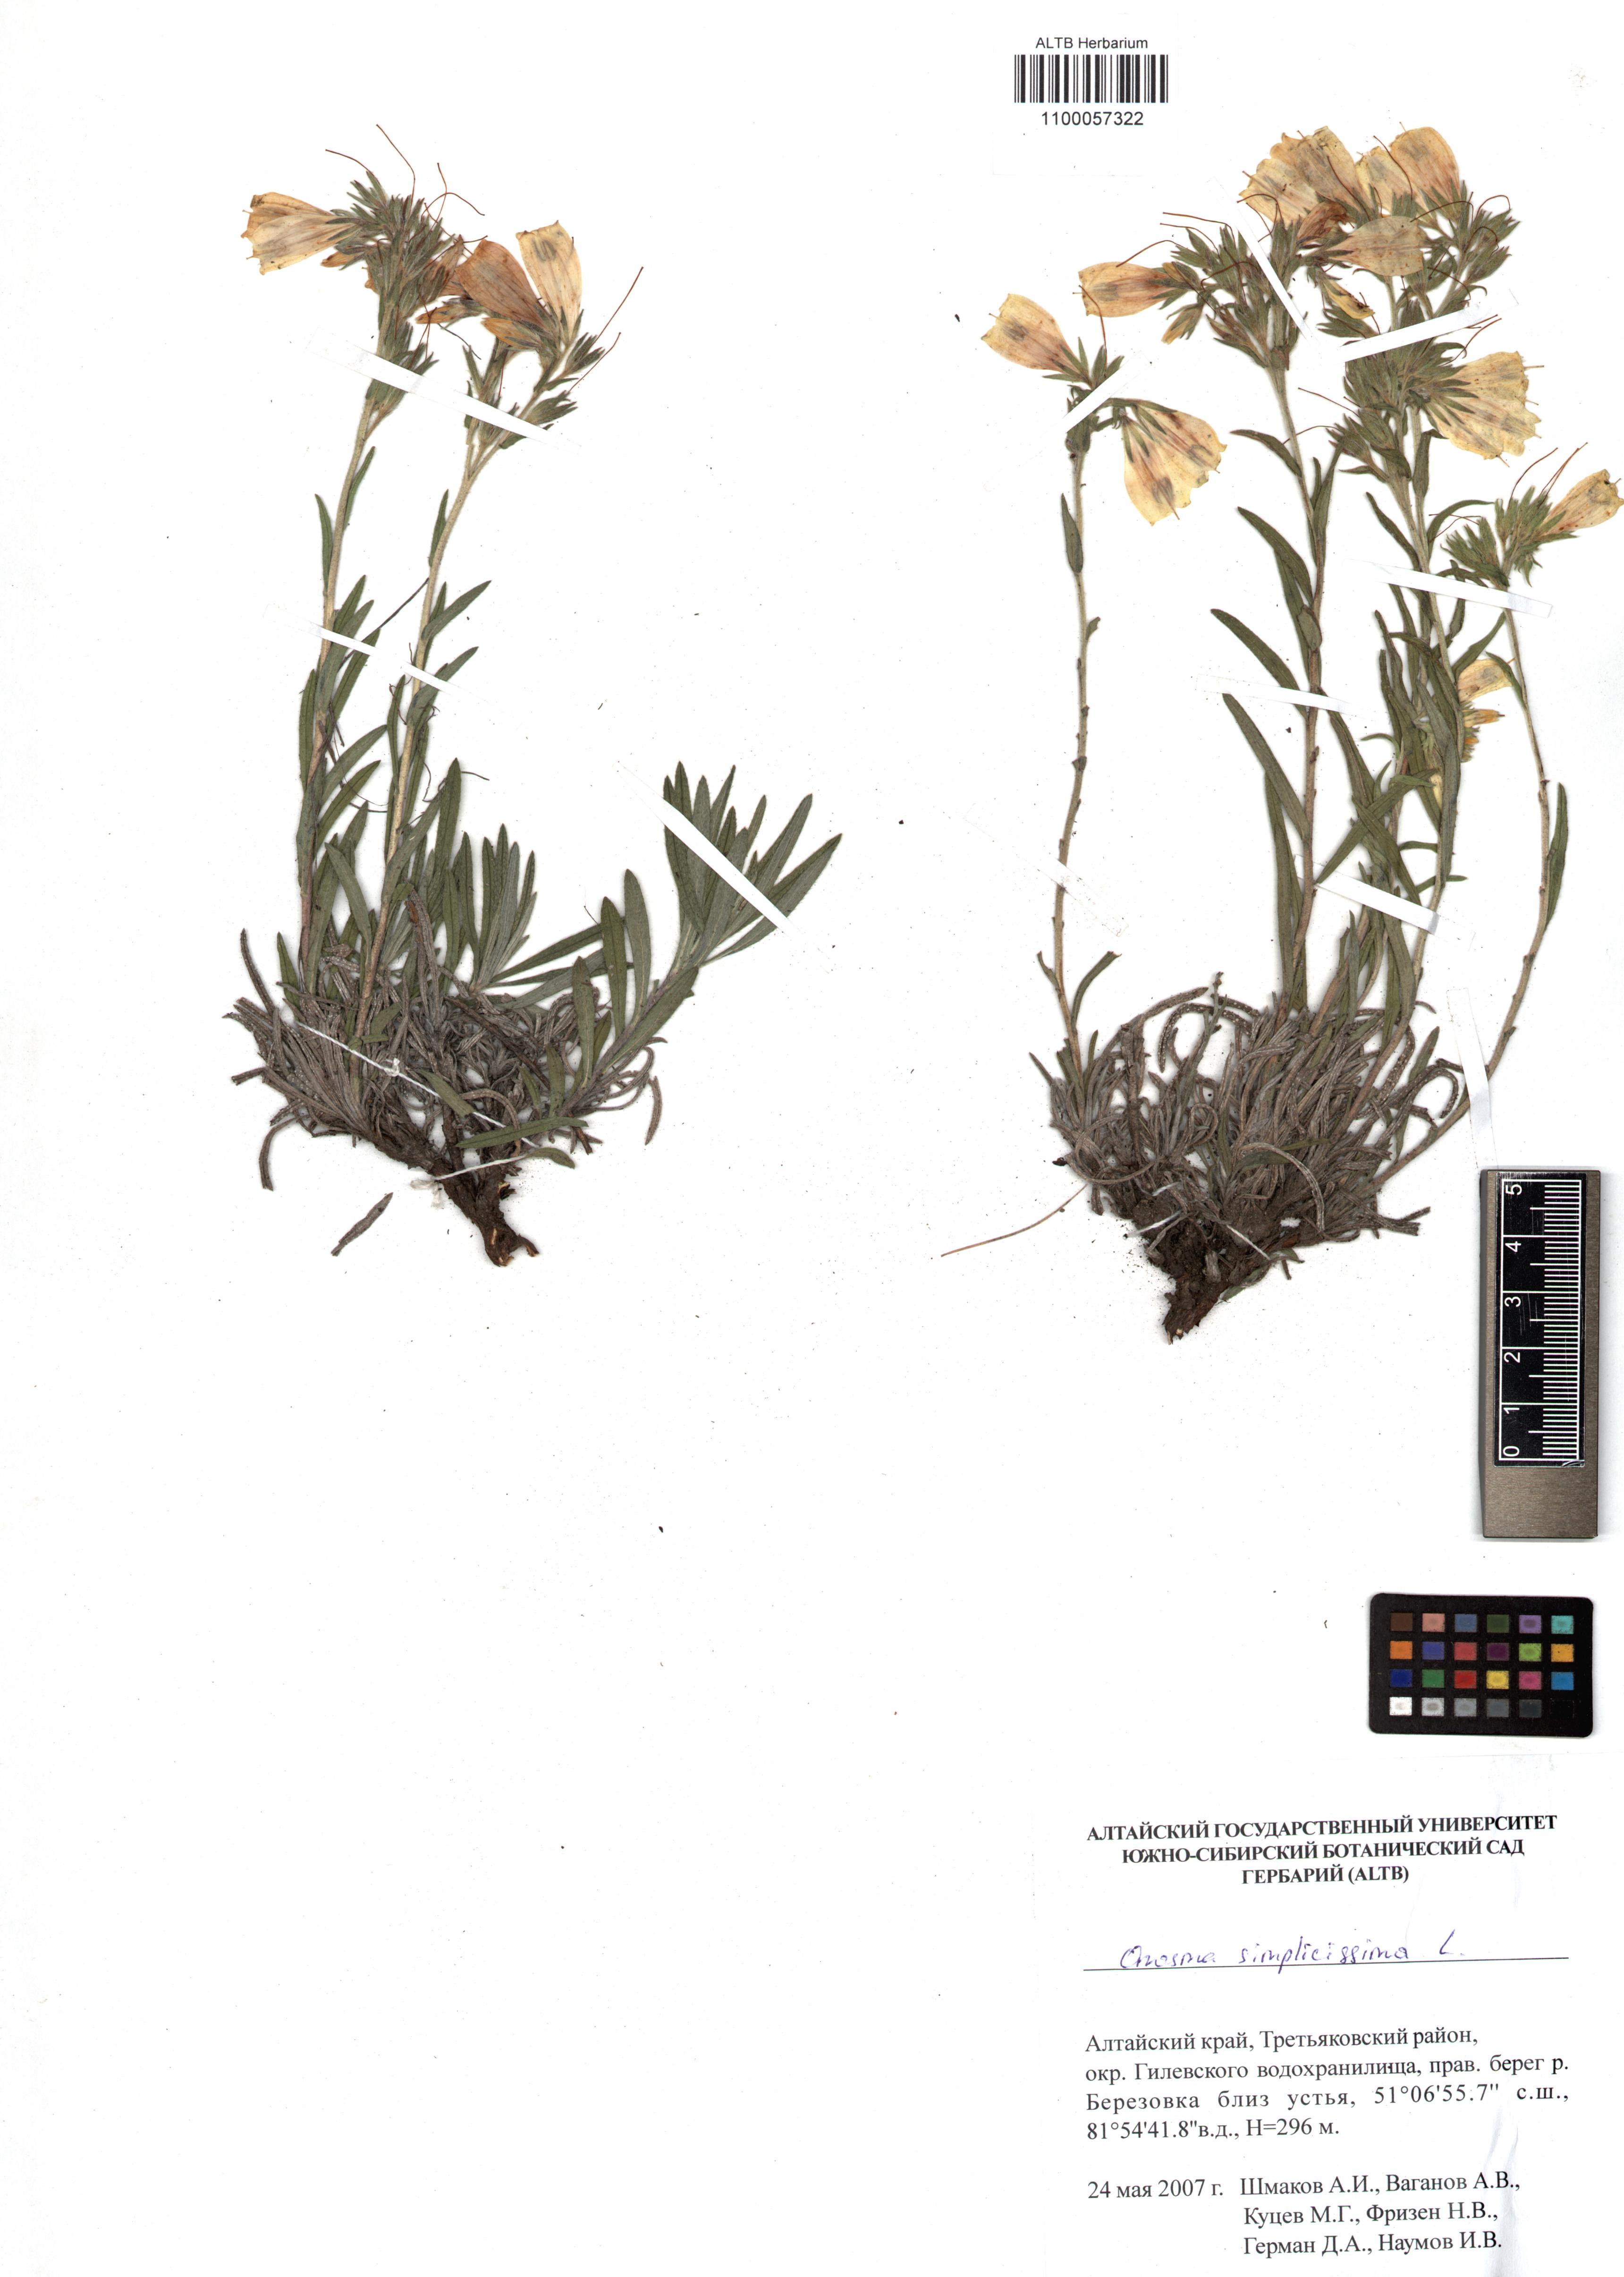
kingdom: Plantae
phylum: Tracheophyta
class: Magnoliopsida
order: Boraginales
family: Boraginaceae
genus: Onosma
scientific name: Onosma simplicissima
